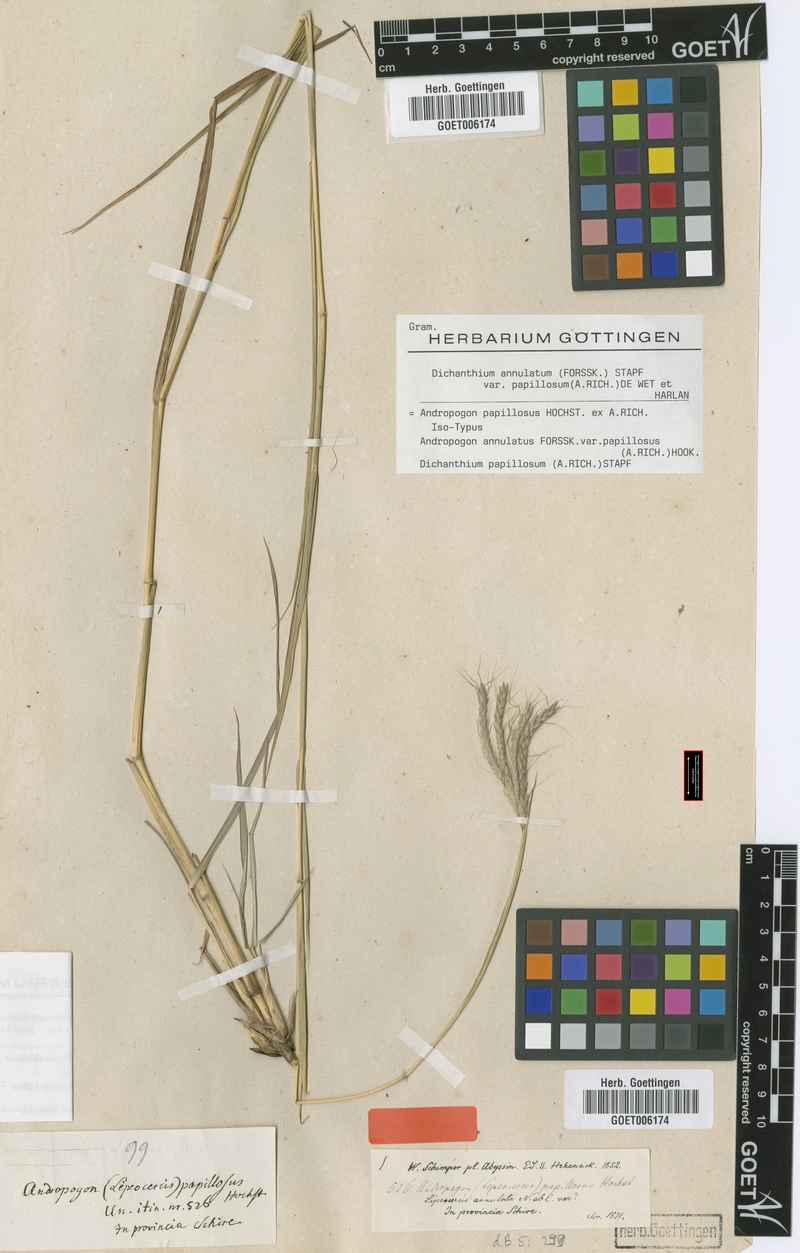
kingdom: Plantae
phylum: Tracheophyta
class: Liliopsida
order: Poales
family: Poaceae
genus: Dichanthium
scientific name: Dichanthium annulatum
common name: Kleberg's bluestem
